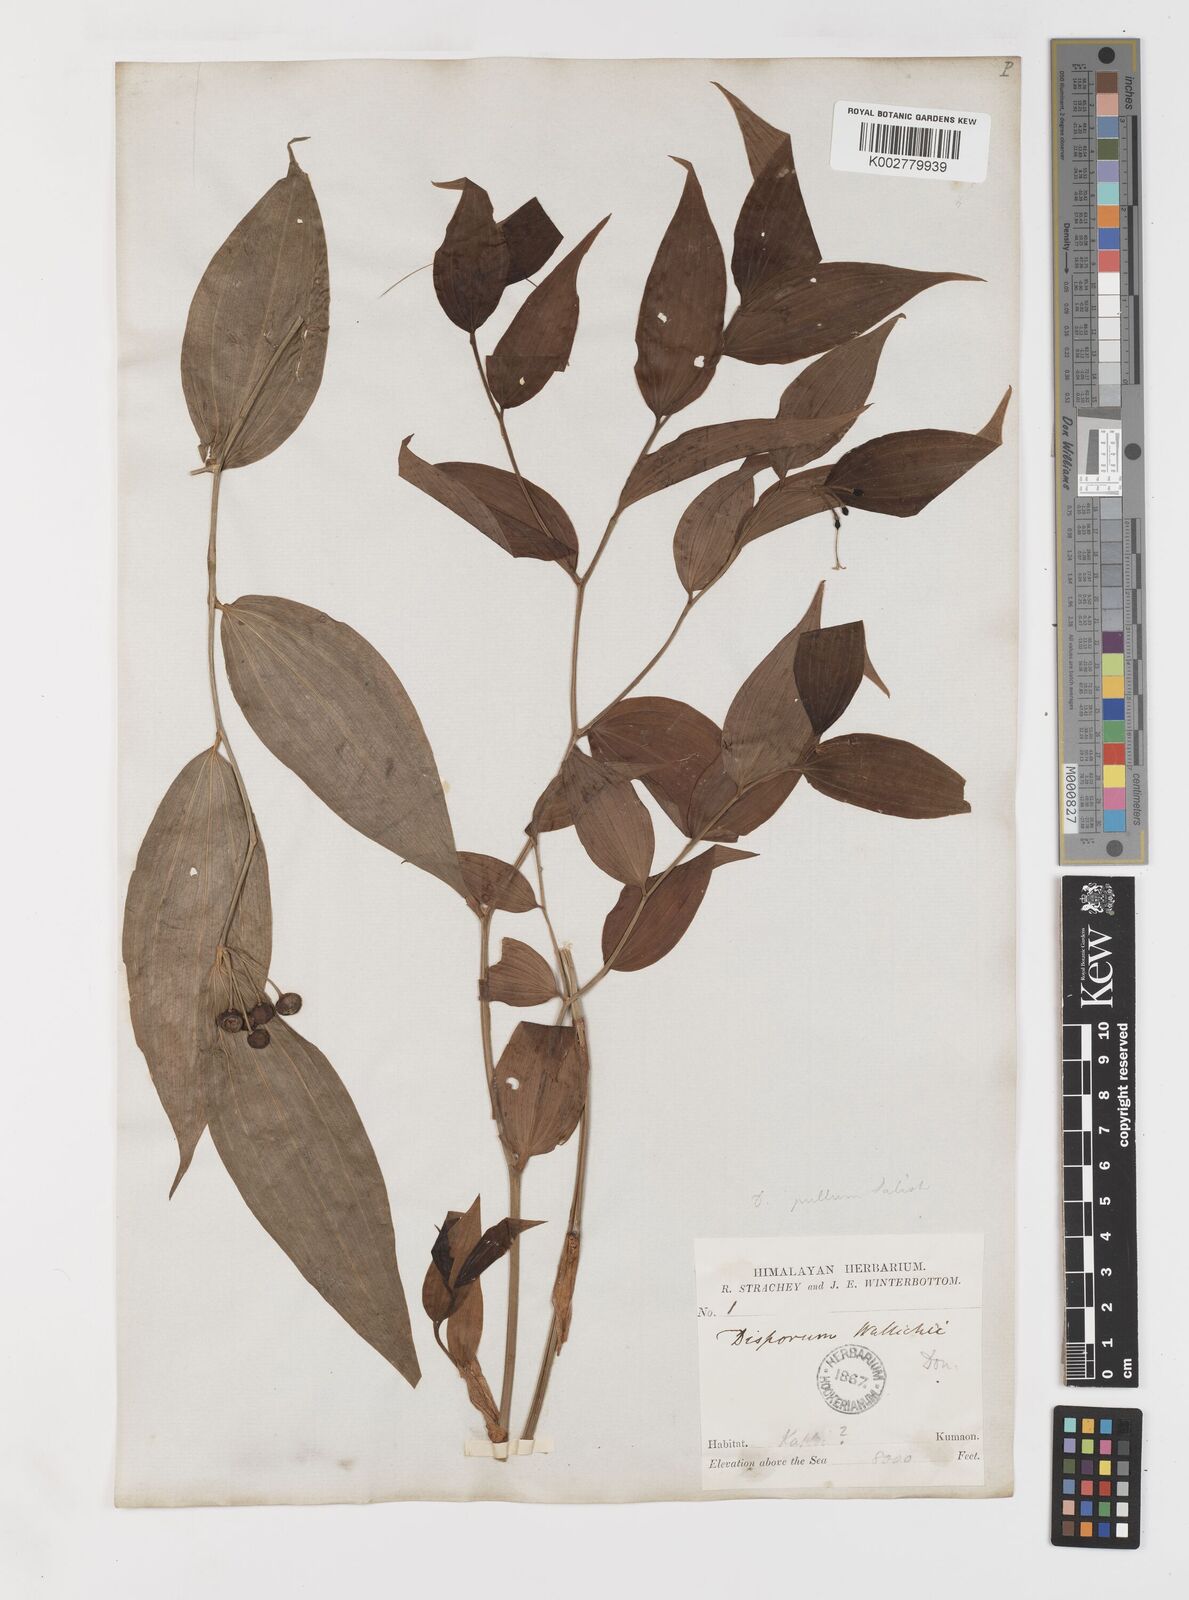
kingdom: Plantae
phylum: Tracheophyta
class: Liliopsida
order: Liliales
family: Colchicaceae
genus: Disporum
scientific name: Disporum cantoniense
